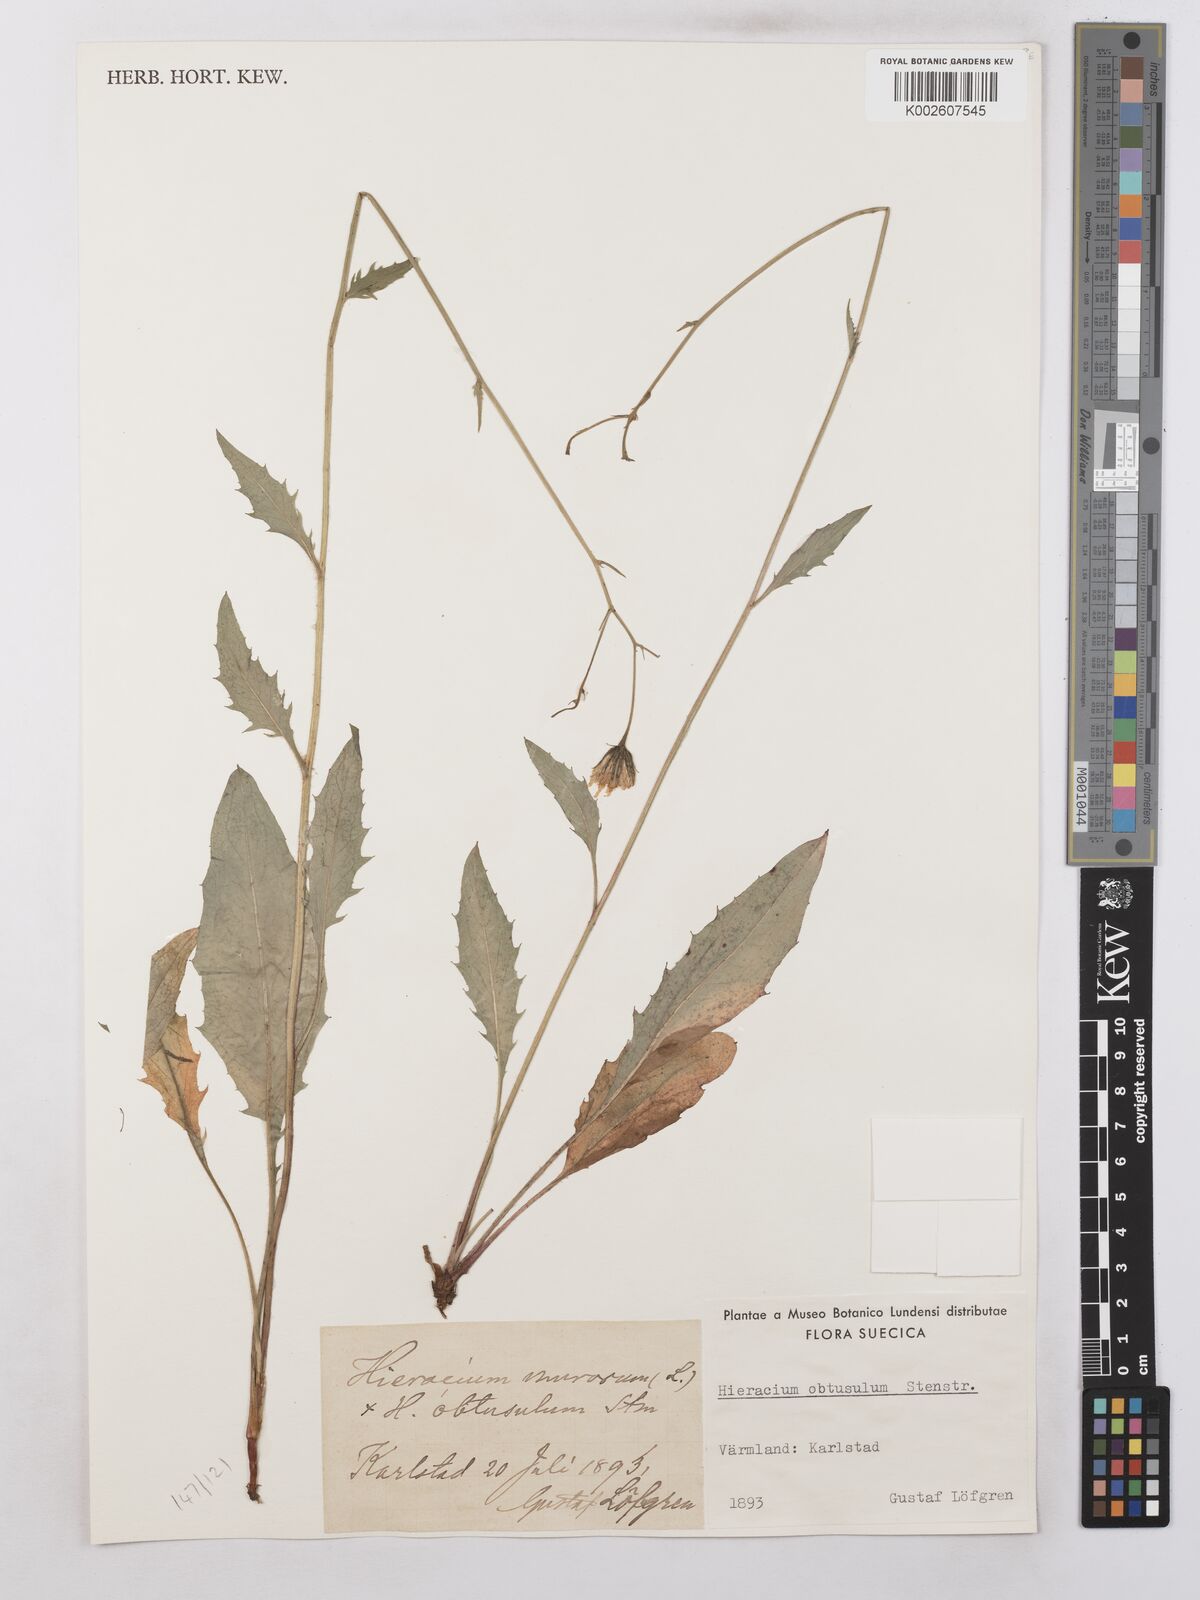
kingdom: Plantae
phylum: Tracheophyta
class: Magnoliopsida
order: Asterales
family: Asteraceae
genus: Hieracium
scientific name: Hieracium
